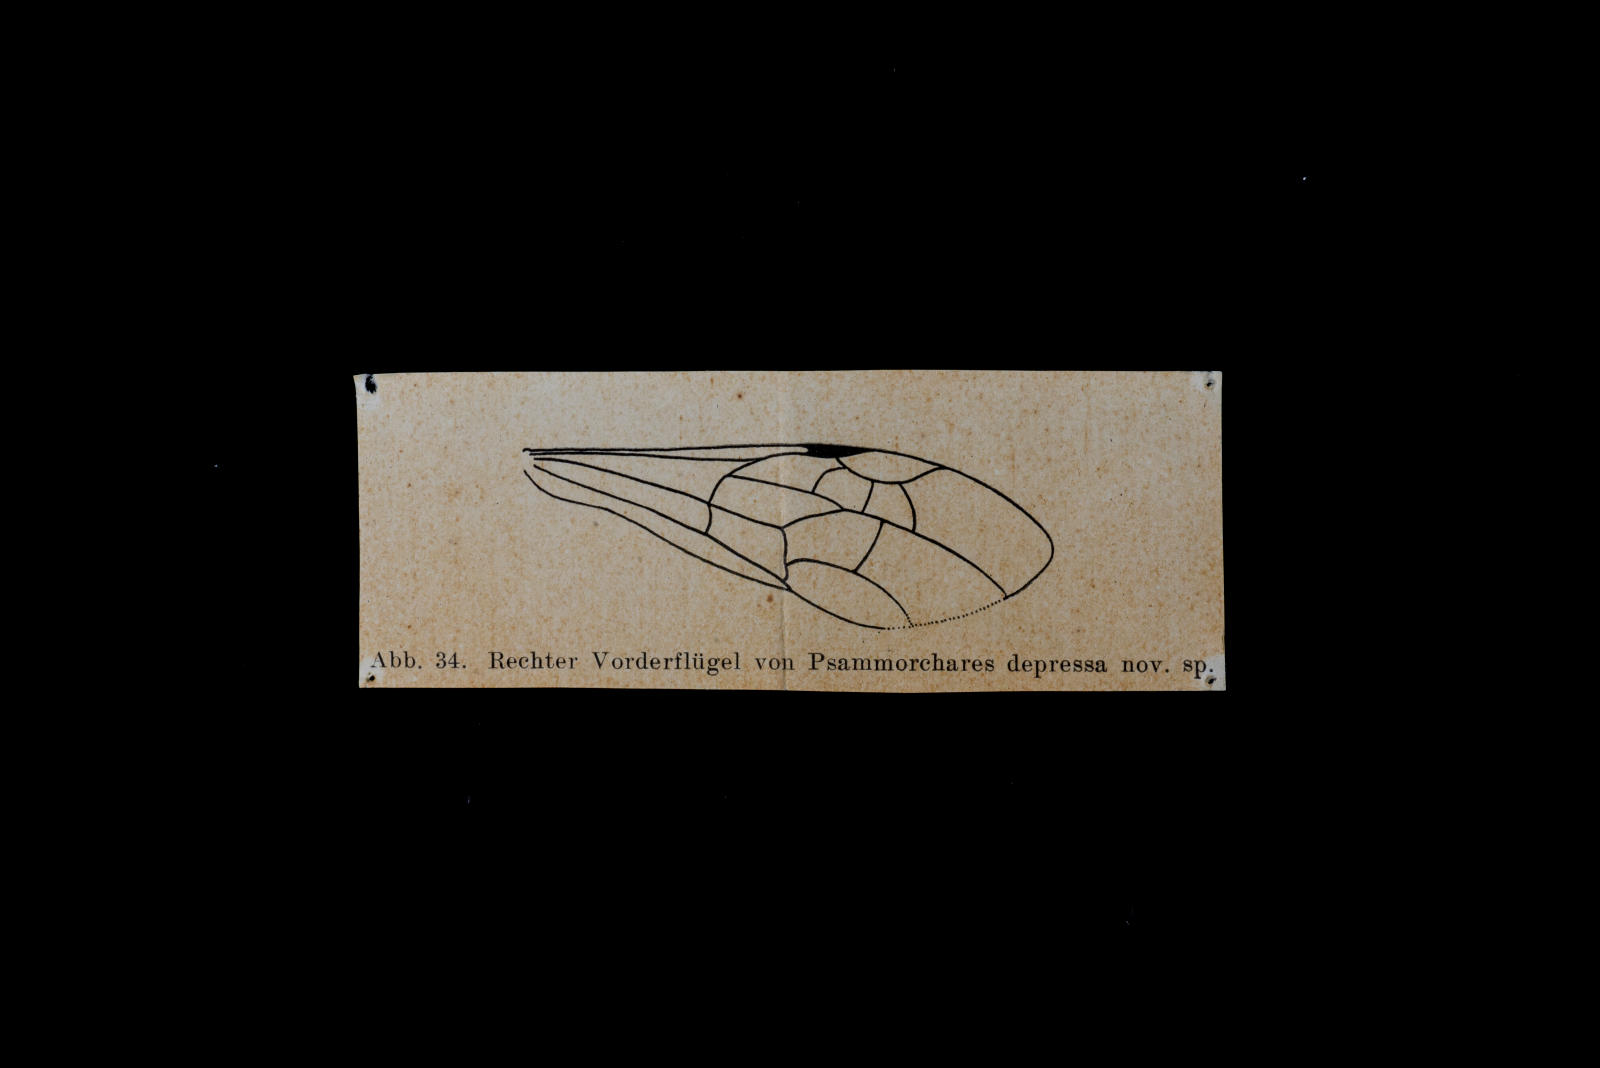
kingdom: Animalia
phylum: Arthropoda
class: Insecta
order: Hymenoptera
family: Pompilidae
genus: Pompilinites
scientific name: Pompilinites Psammochares depressa
